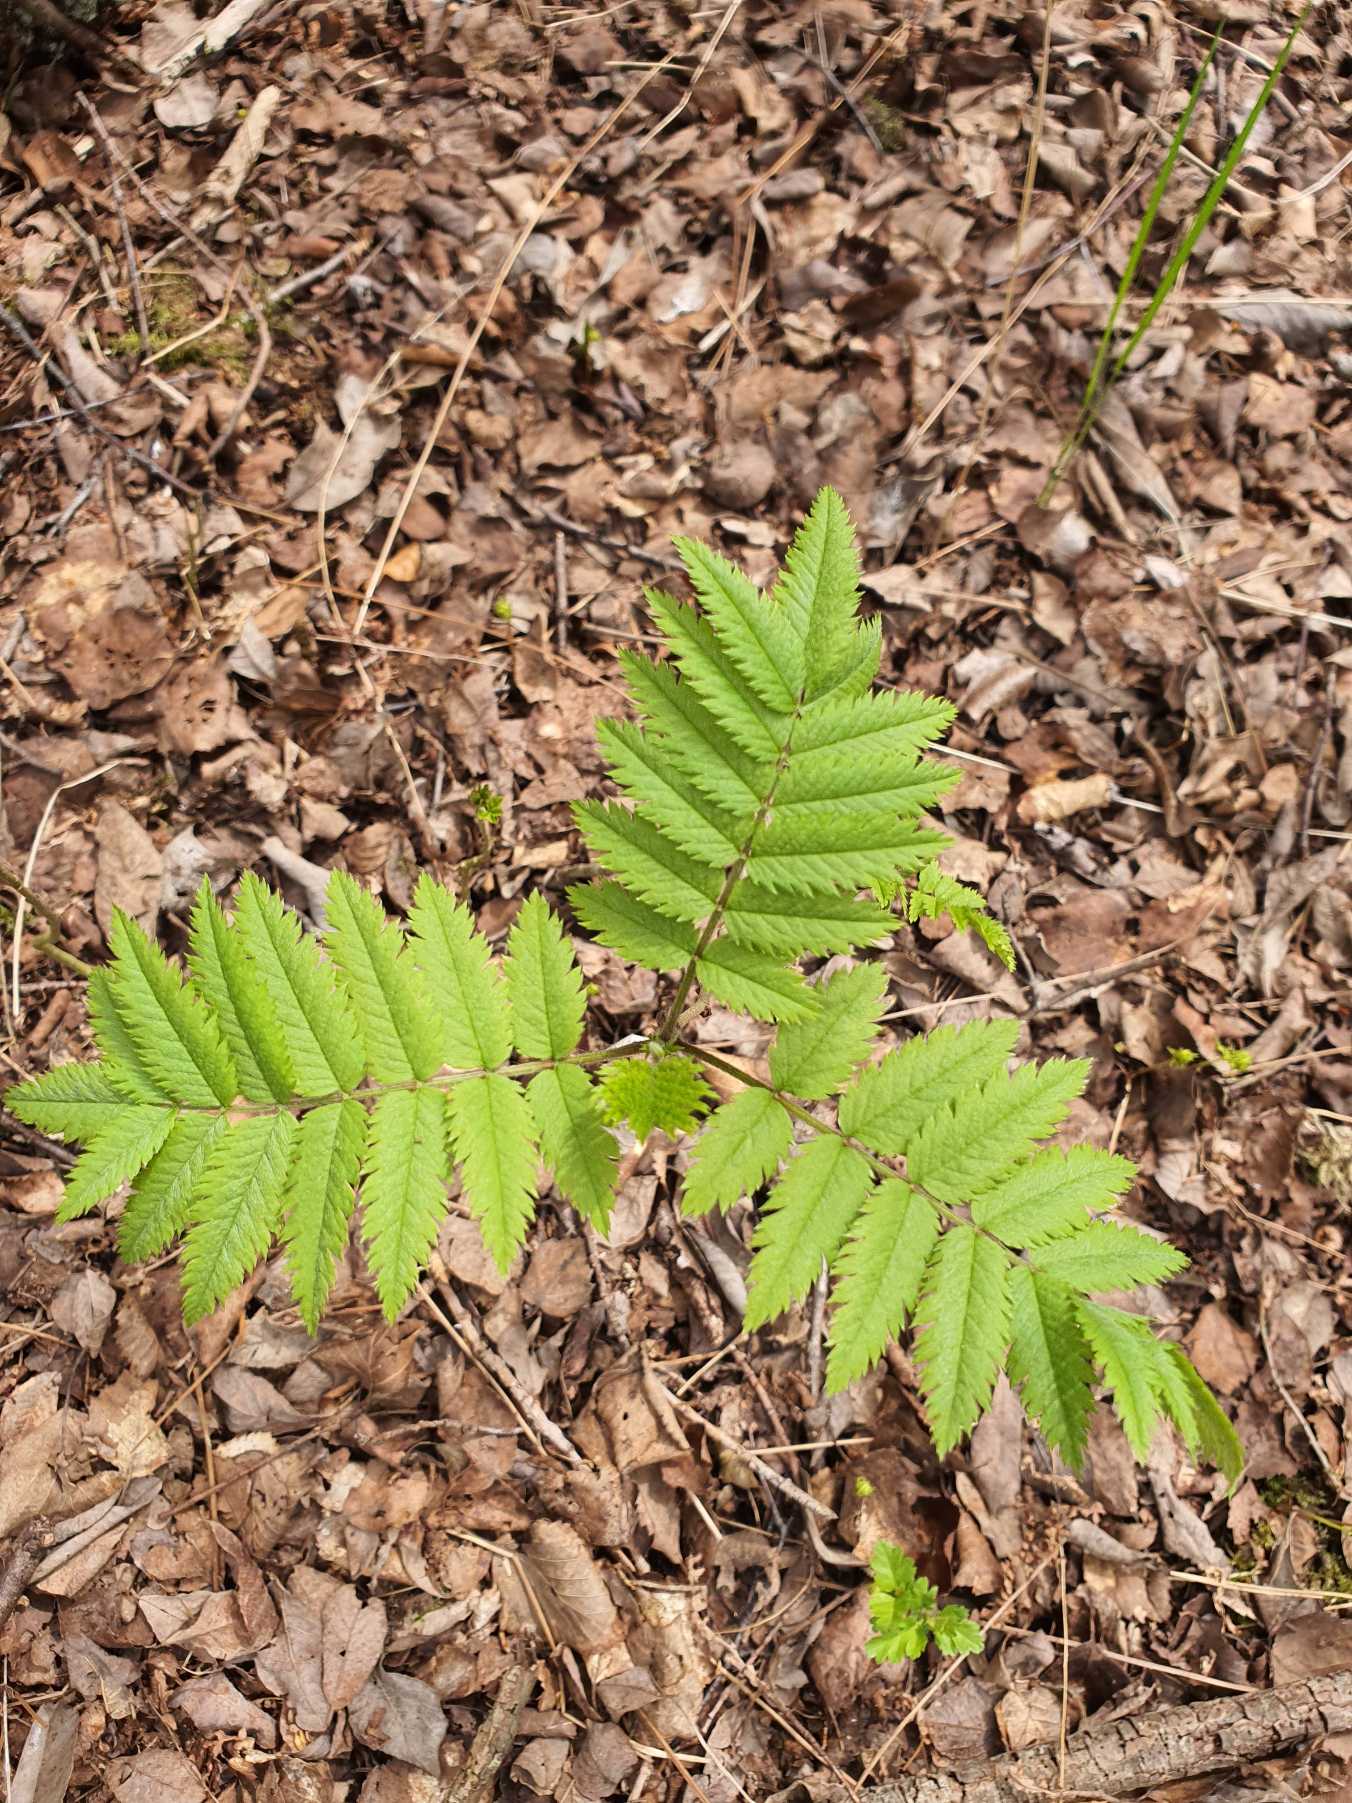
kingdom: Plantae
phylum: Tracheophyta
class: Magnoliopsida
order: Rosales
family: Rosaceae
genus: Sorbus
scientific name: Sorbus aucuparia
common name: Almindelig røn
